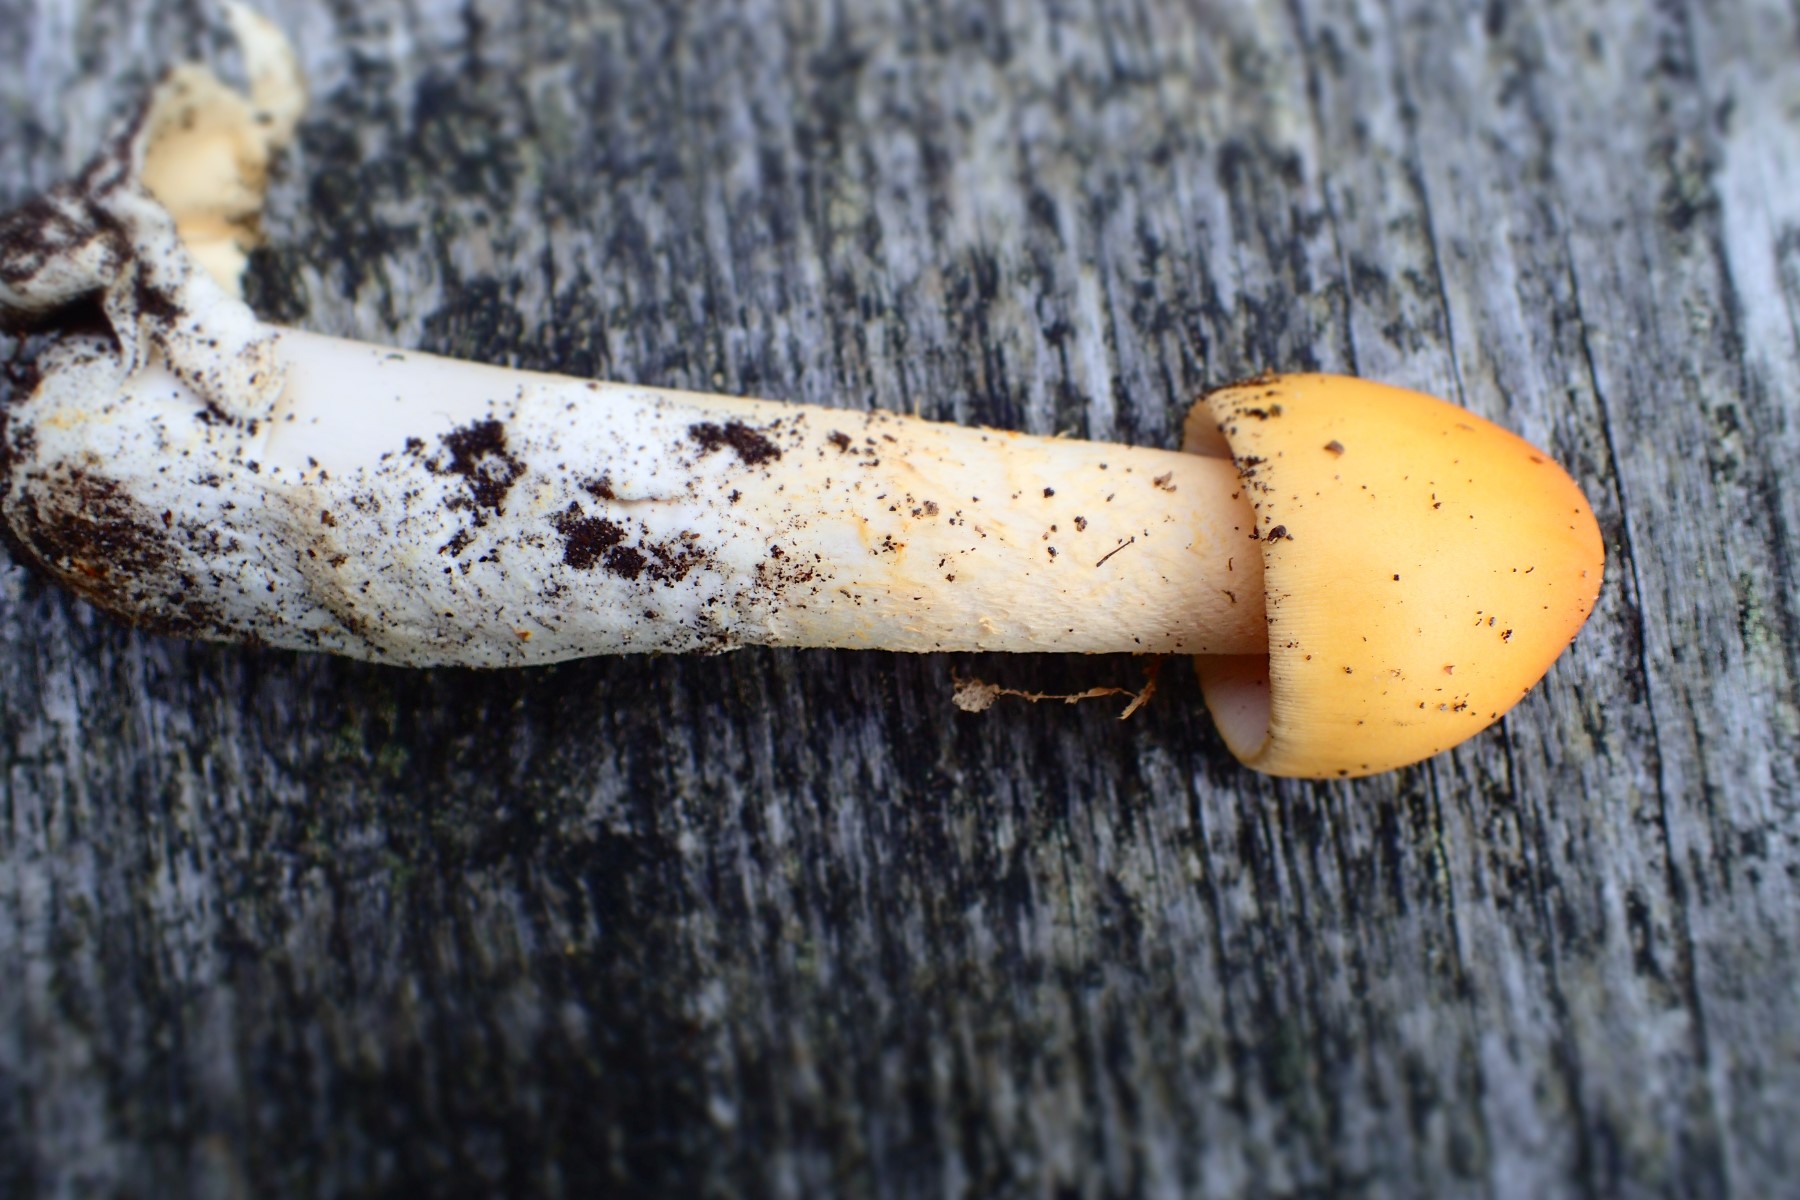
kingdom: Fungi
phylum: Basidiomycota
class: Agaricomycetes
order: Agaricales
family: Amanitaceae
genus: Amanita
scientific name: Amanita crocea
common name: gylden kam-fluesvamp
